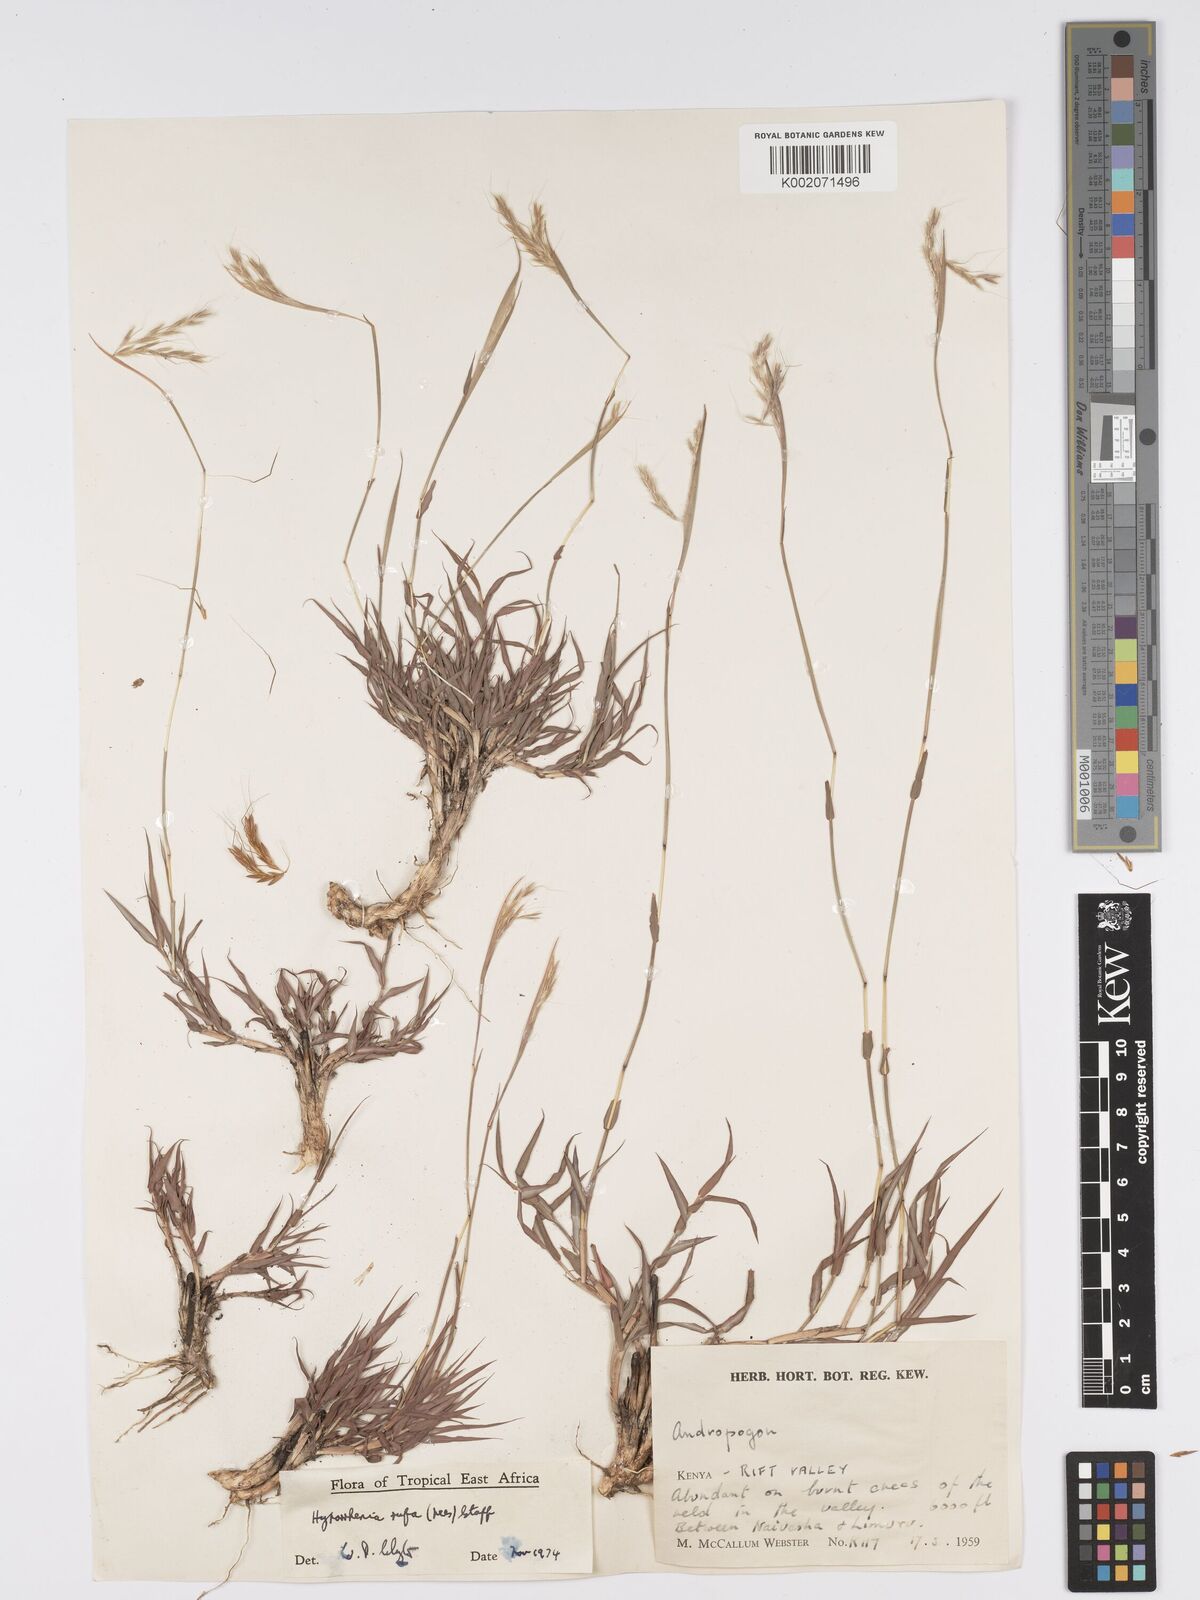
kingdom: Plantae
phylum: Tracheophyta
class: Liliopsida
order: Poales
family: Poaceae
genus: Hyparrhenia
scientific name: Hyparrhenia rufa
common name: Jaraguagrass
